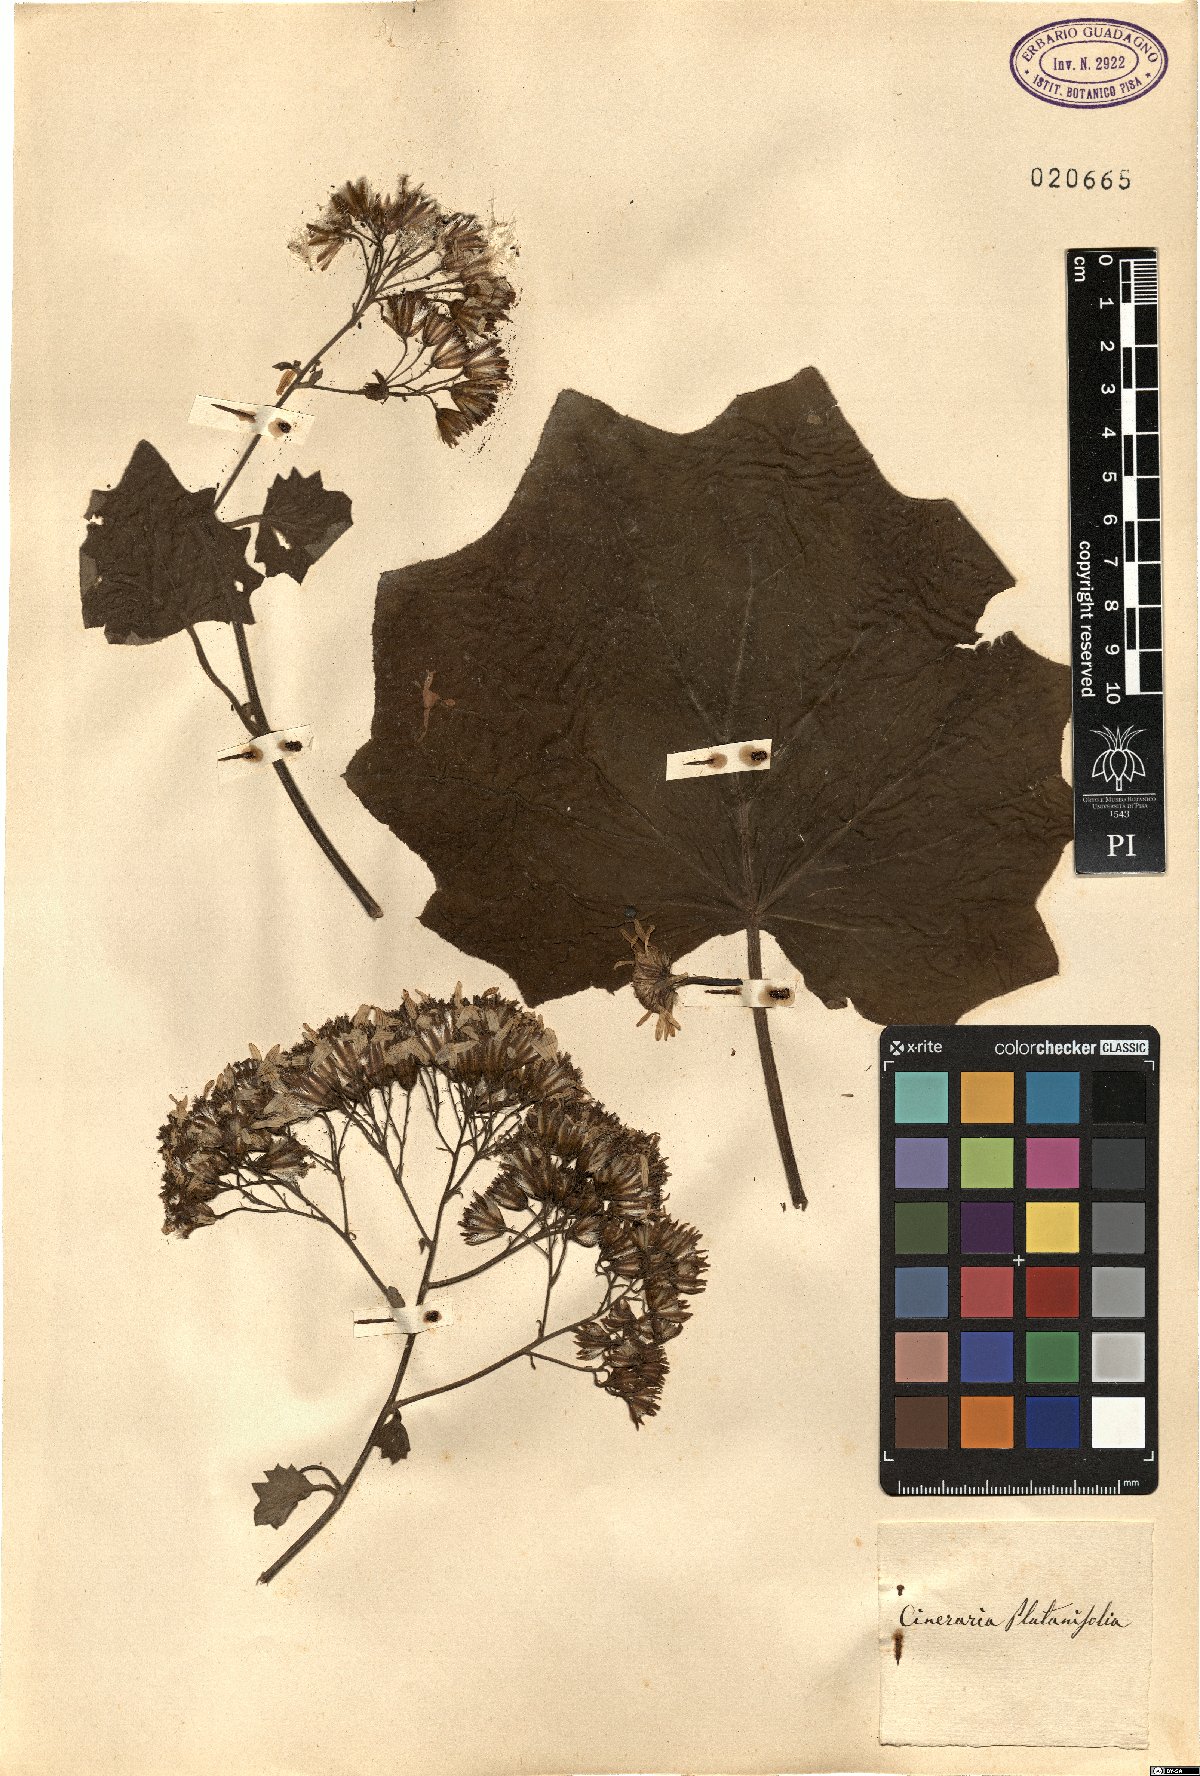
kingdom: Plantae
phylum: Tracheophyta
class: Magnoliopsida
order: Asterales
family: Asteraceae
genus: Roldana
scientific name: Roldana petasitis
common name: California-geranium
